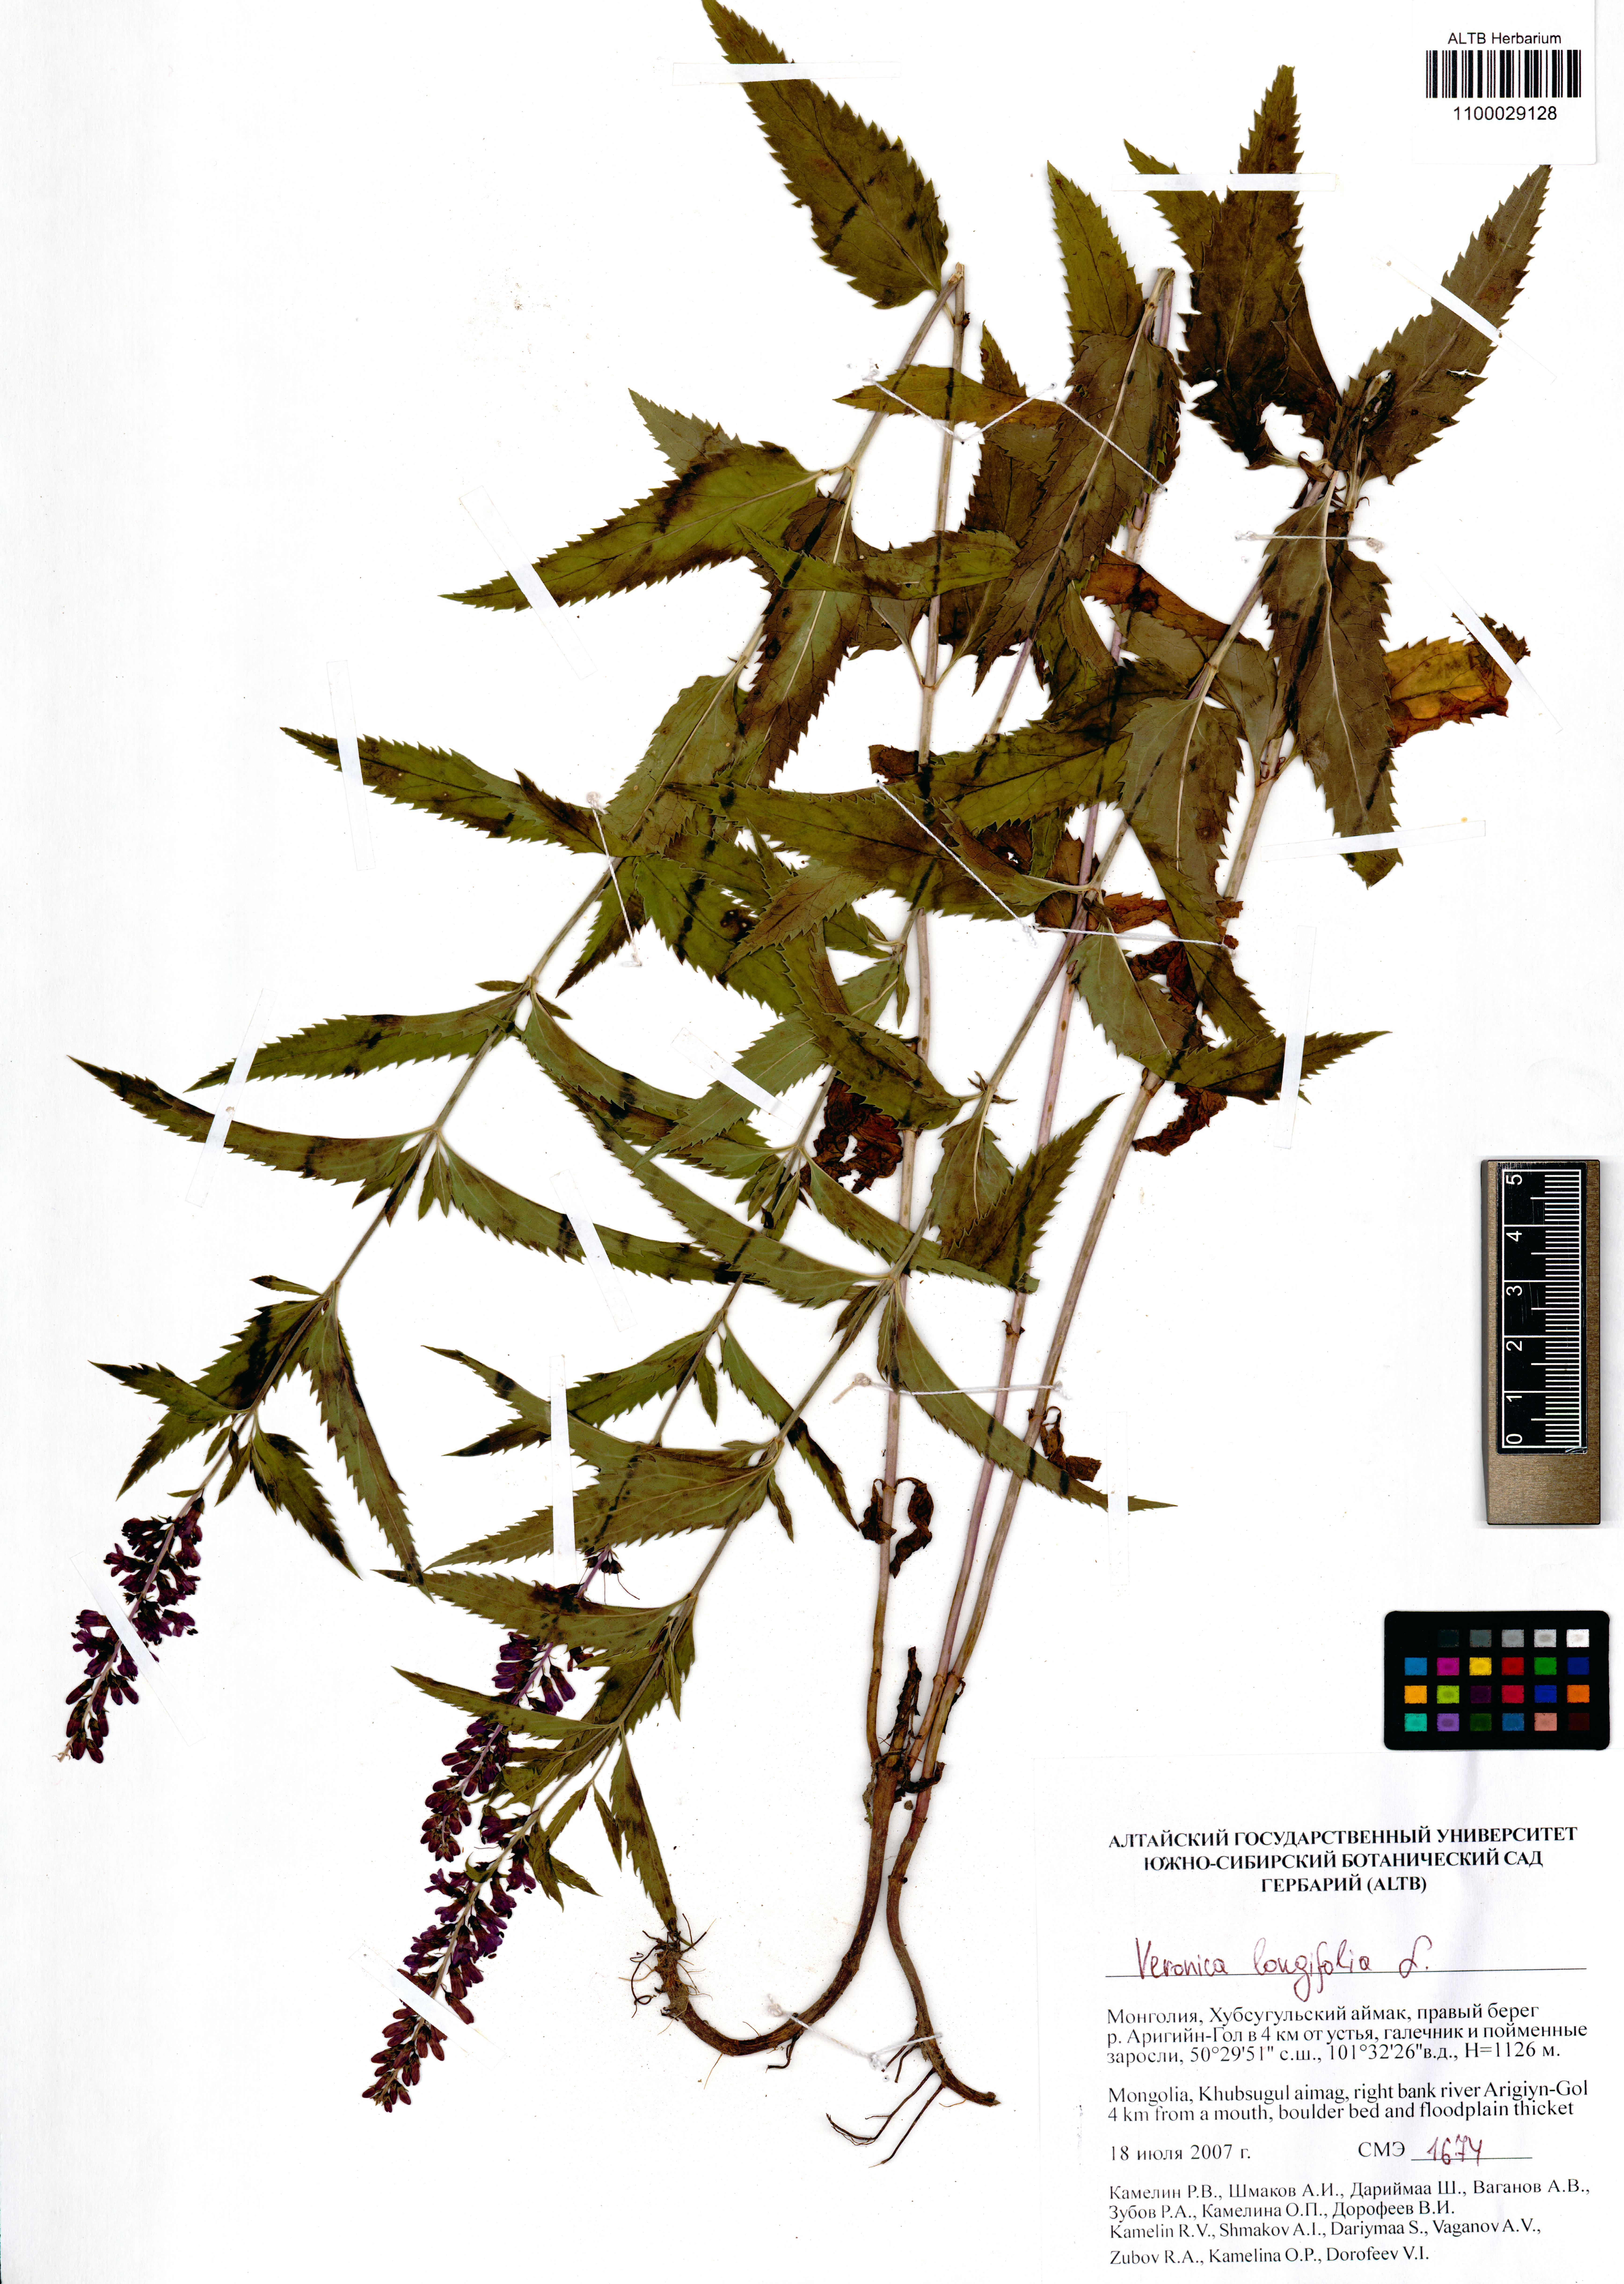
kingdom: Plantae
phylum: Tracheophyta
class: Magnoliopsida
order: Lamiales
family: Plantaginaceae
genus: Veronica
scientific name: Veronica longifolia
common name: Garden speedwell
